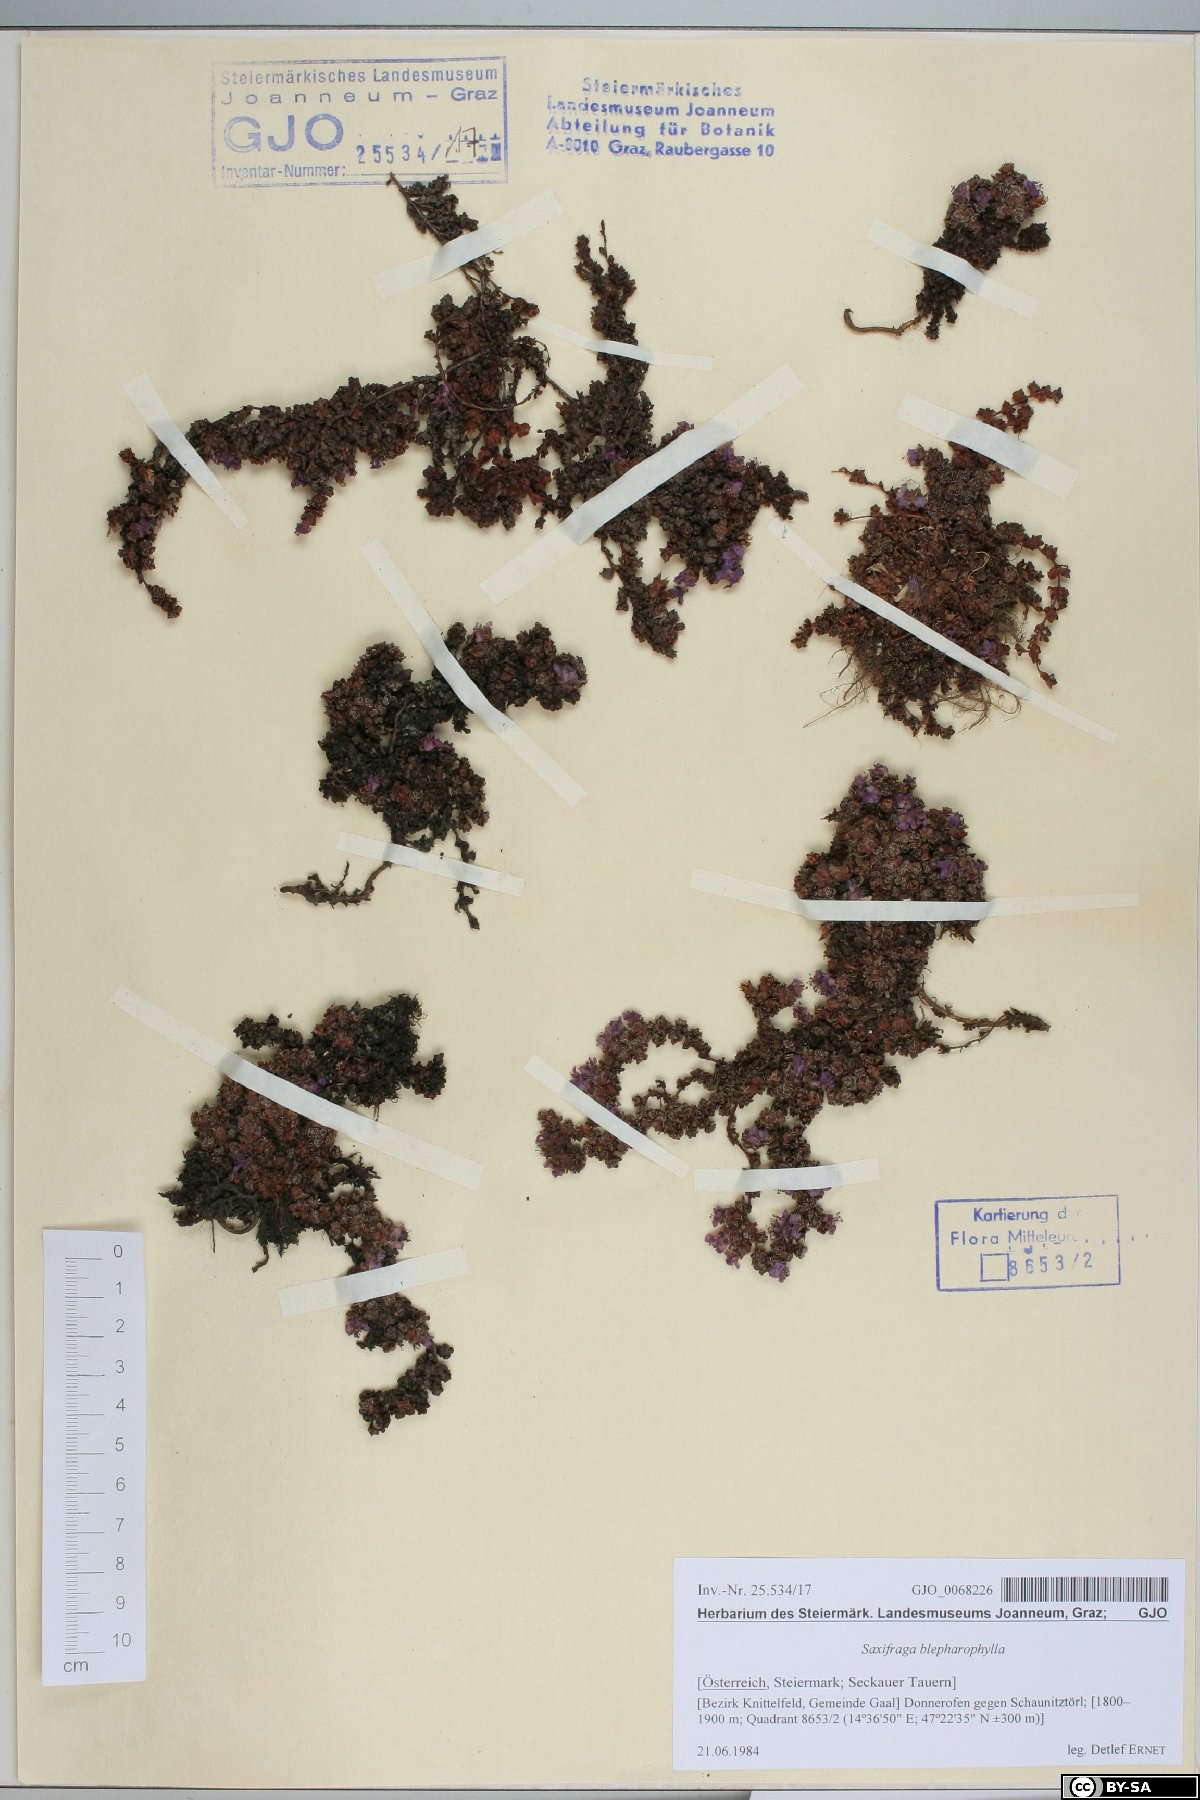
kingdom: Plantae
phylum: Tracheophyta
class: Magnoliopsida
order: Saxifragales
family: Saxifragaceae
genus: Saxifraga
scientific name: Saxifraga oppositifolia
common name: Purple saxifrage
